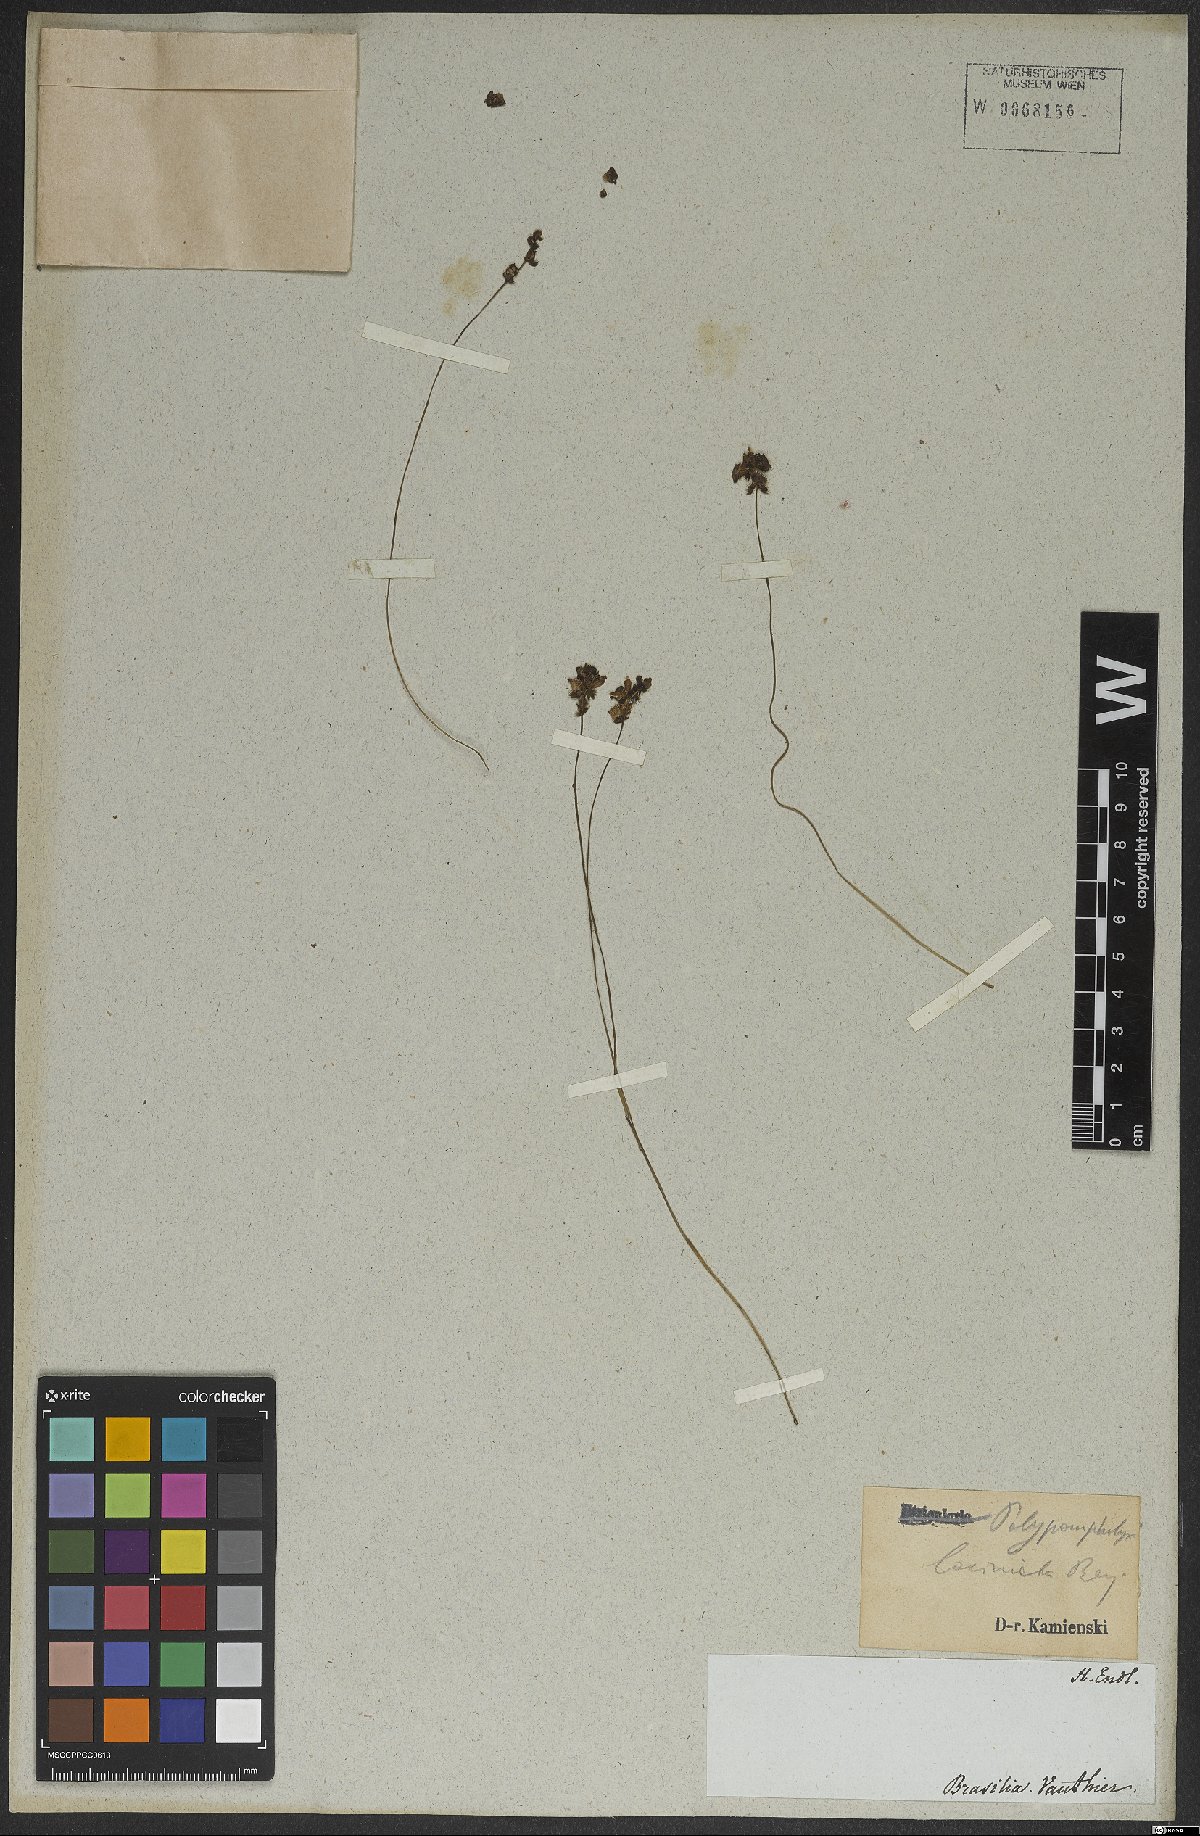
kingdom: Plantae
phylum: Tracheophyta
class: Magnoliopsida
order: Lamiales
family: Lentibulariaceae
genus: Utricularia
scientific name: Utricularia laciniata
